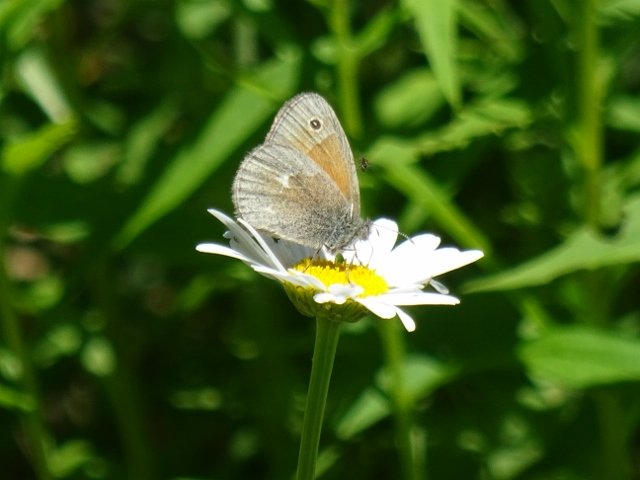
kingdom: Animalia
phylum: Arthropoda
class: Insecta
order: Lepidoptera
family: Nymphalidae
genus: Coenonympha
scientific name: Coenonympha tullia
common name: Large Heath
